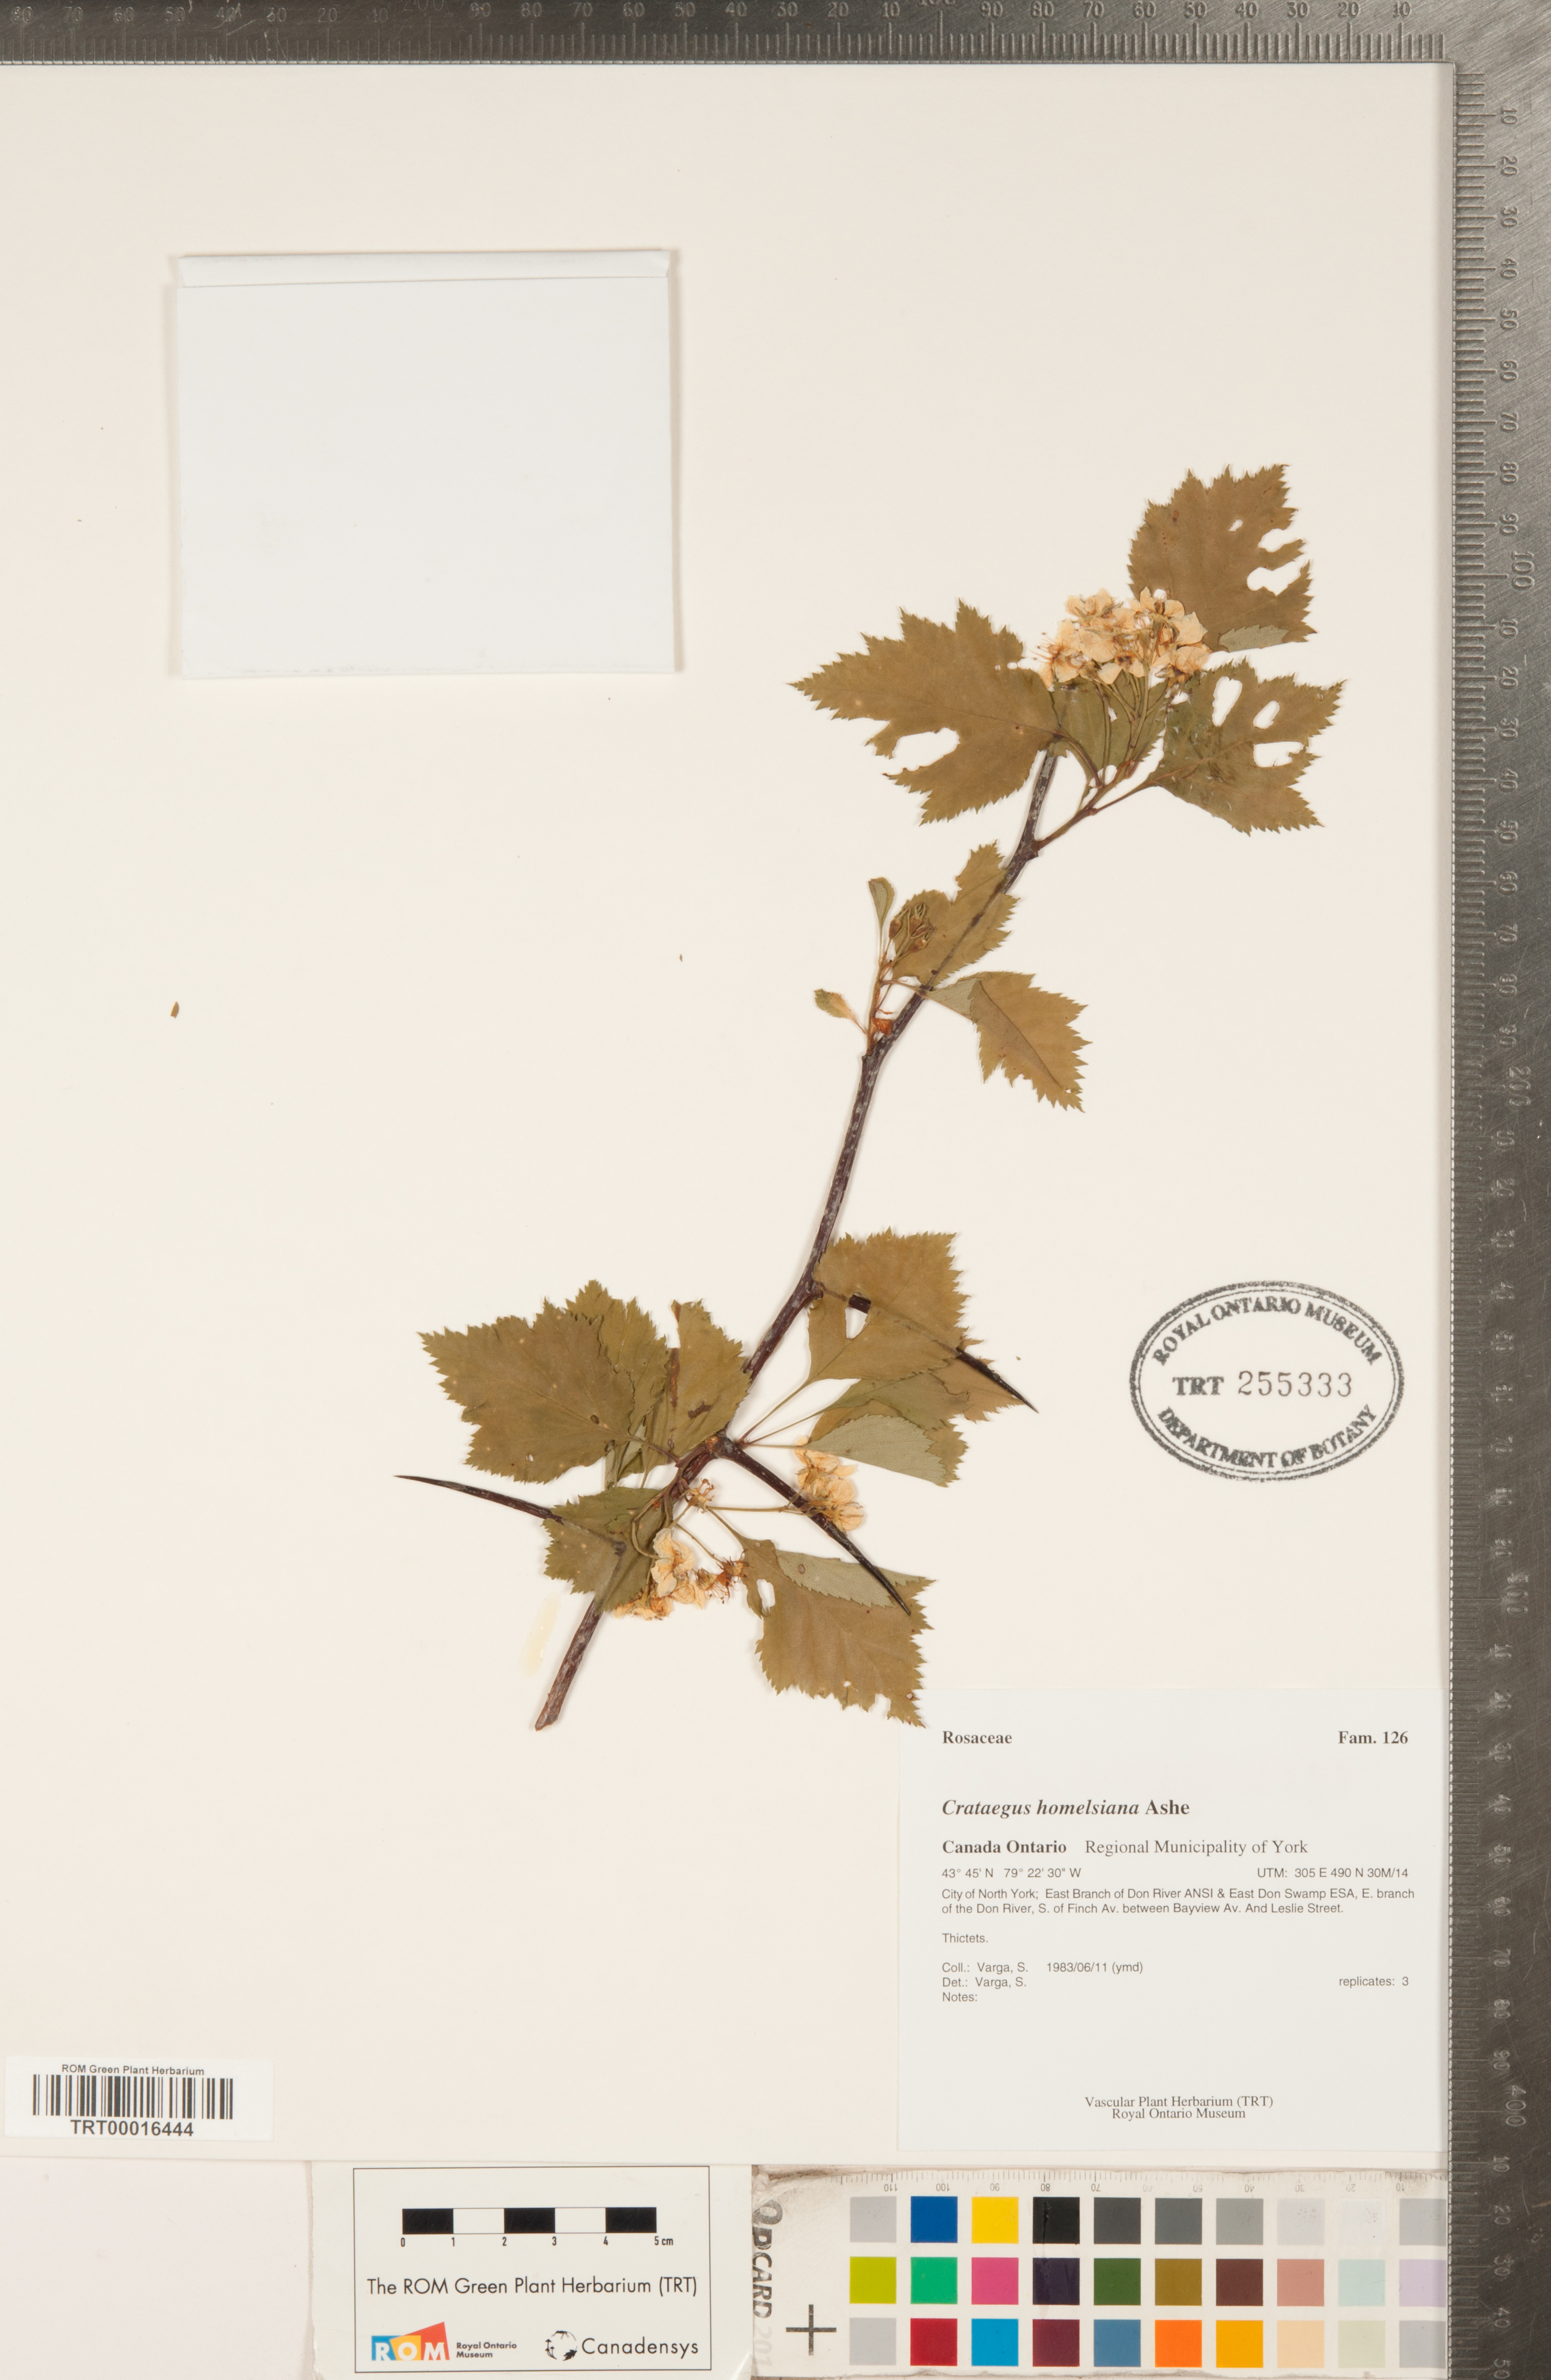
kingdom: Plantae
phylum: Tracheophyta
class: Magnoliopsida
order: Rosales
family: Rosaceae
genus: Crataegus
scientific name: Crataegus holmesiana
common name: Holmes' hawthorn
